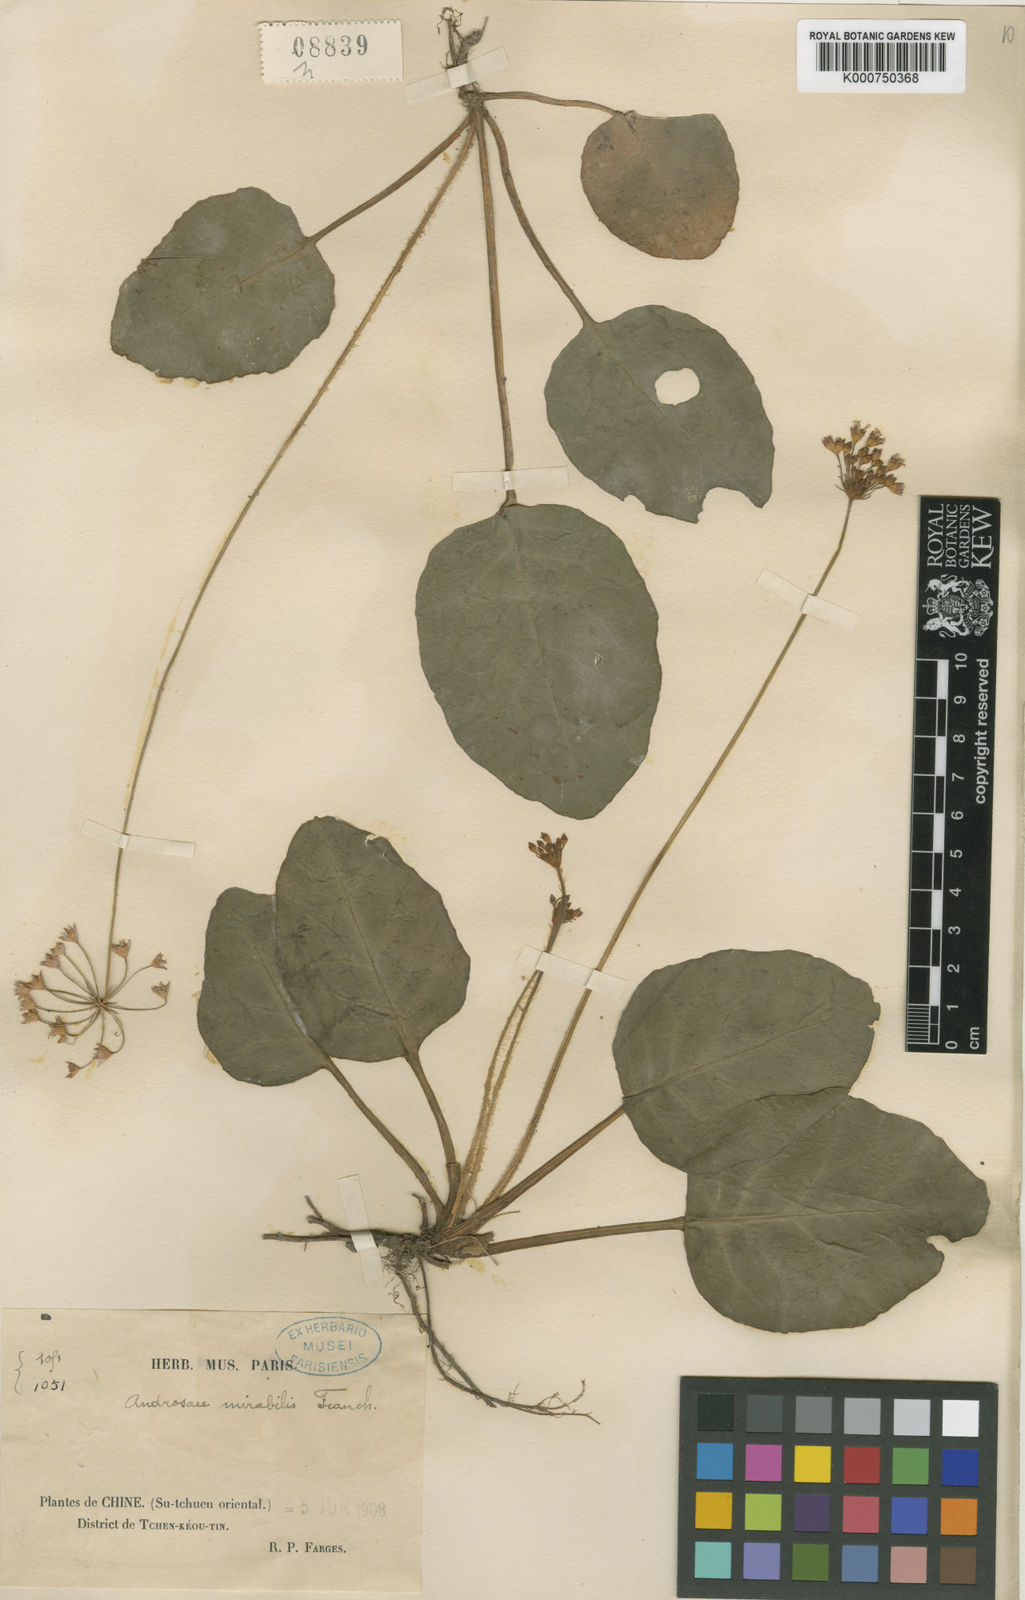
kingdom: Plantae
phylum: Tracheophyta
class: Magnoliopsida
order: Ericales
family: Primulaceae
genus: Androsace
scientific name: Androsace mirabilis
